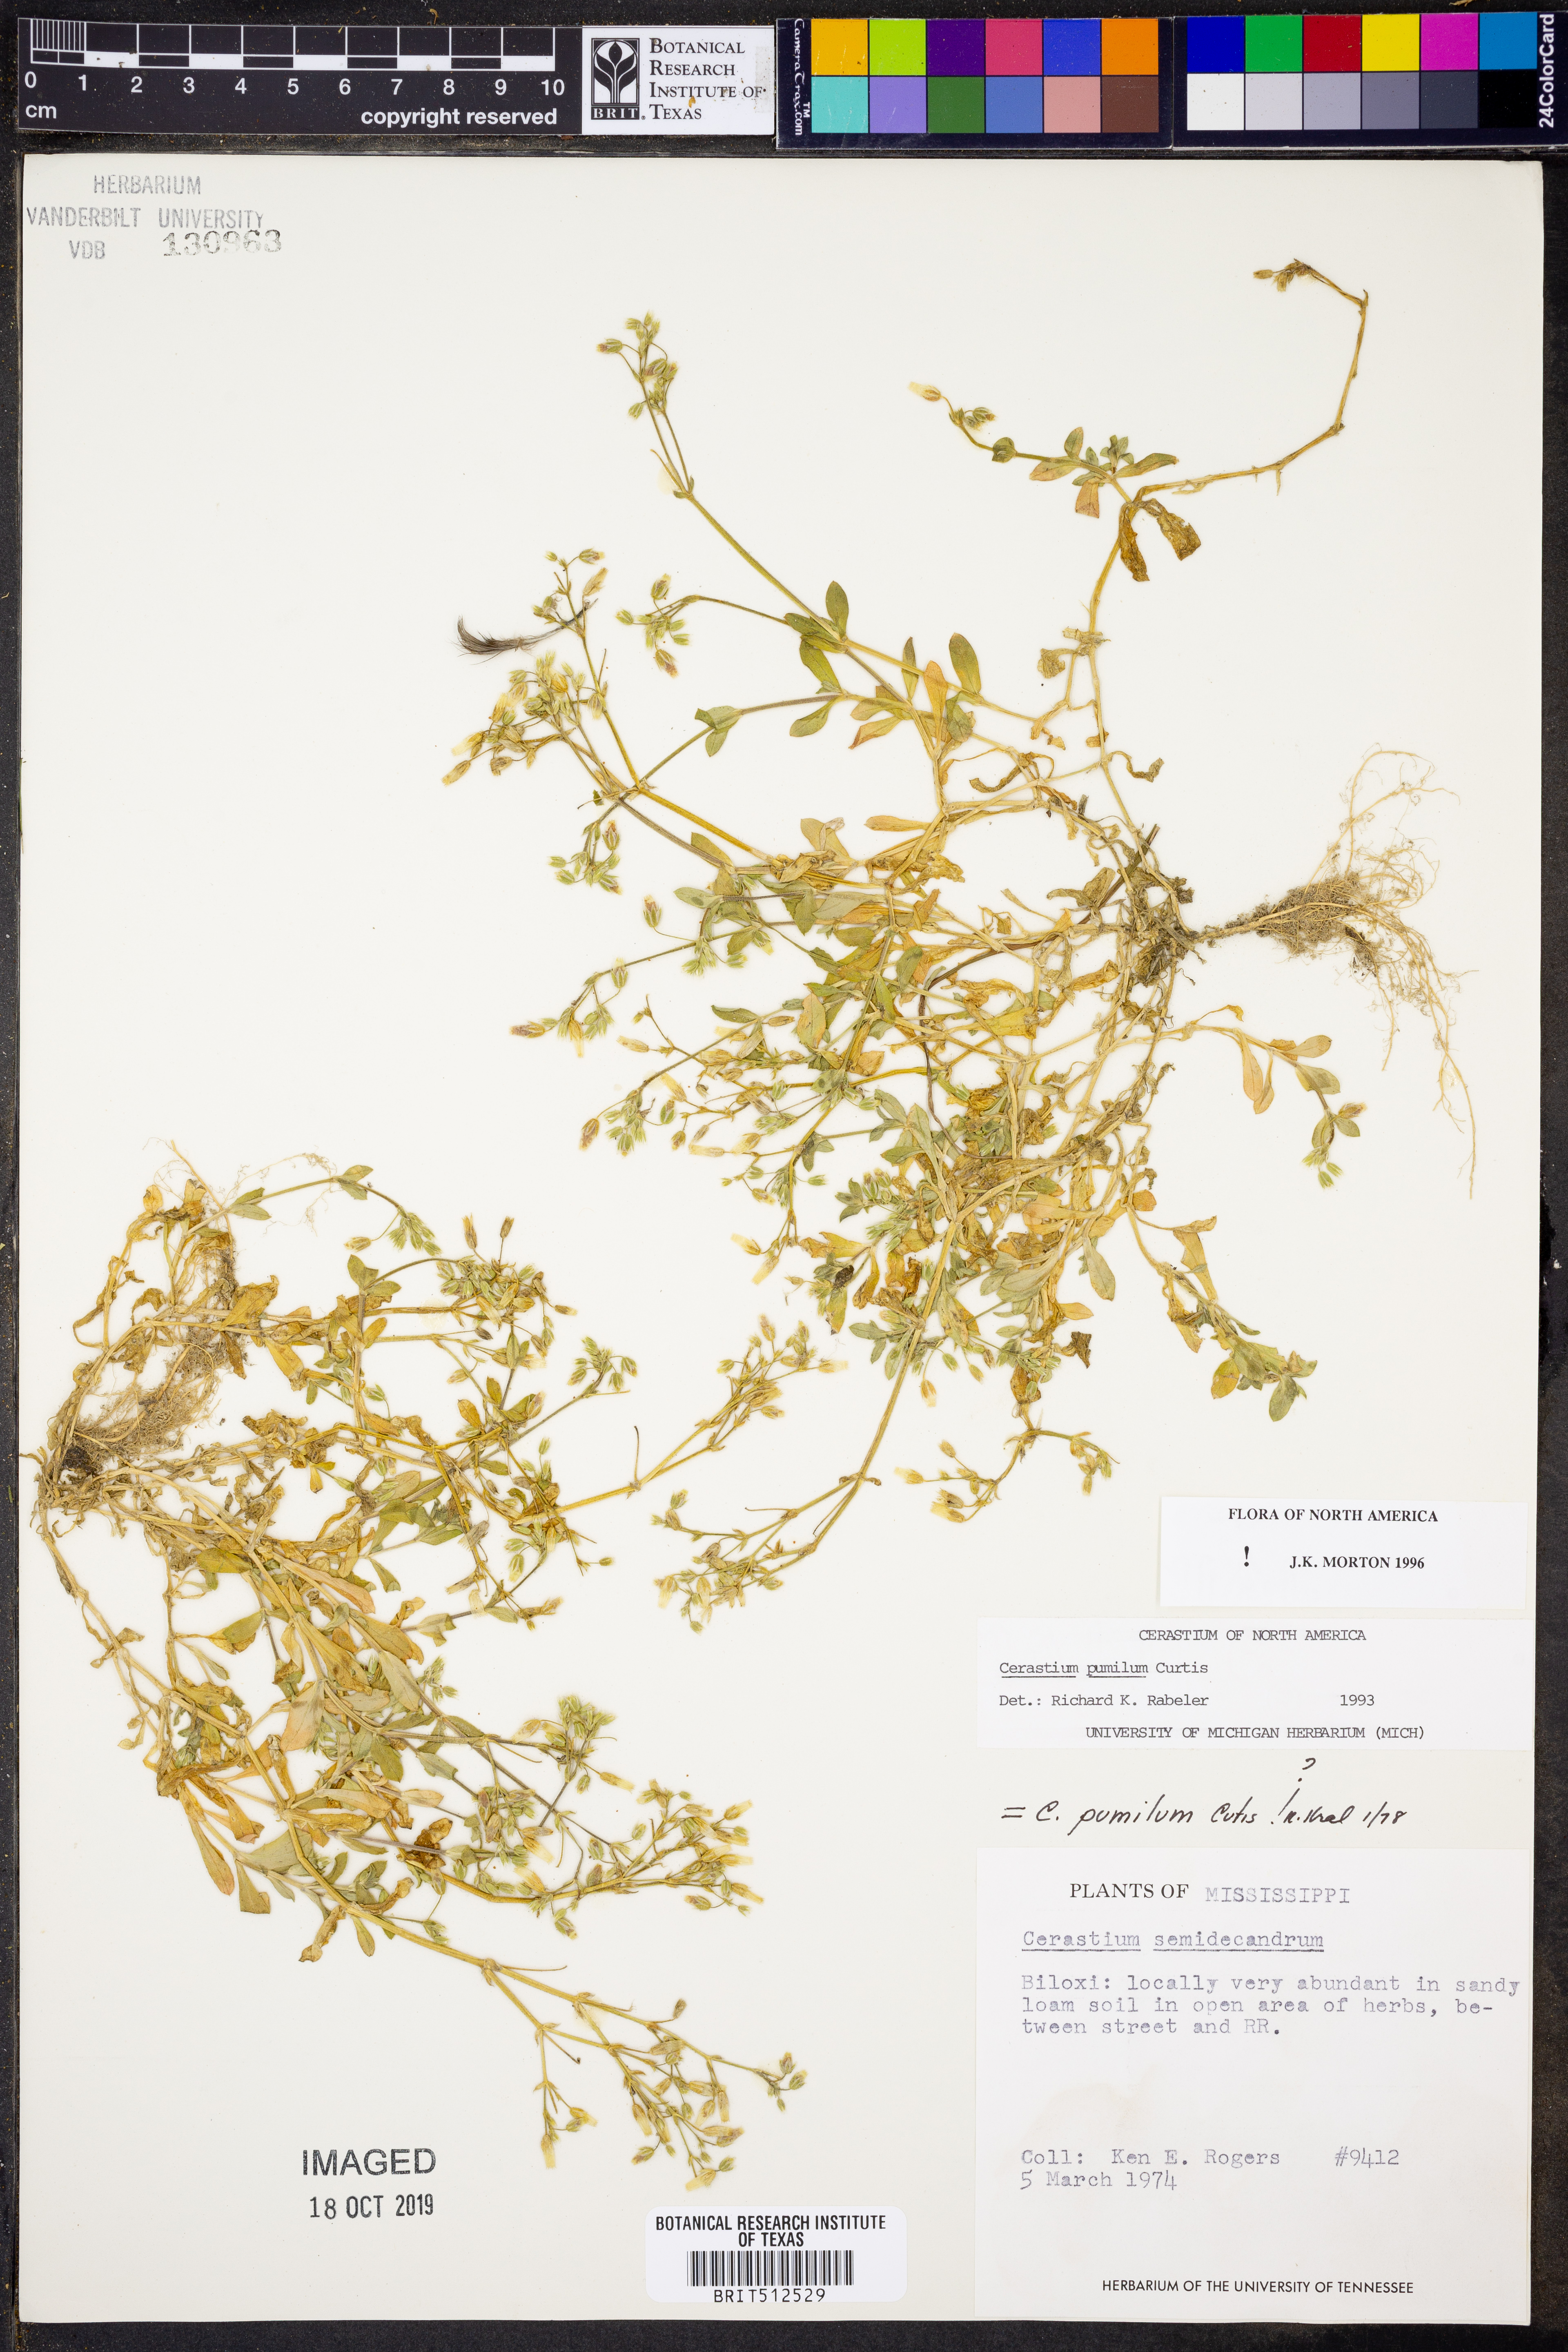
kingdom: Plantae
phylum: Tracheophyta
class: Magnoliopsida
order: Caryophyllales
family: Caryophyllaceae
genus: Cerastium
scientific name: Cerastium pumilum
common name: Dwarf mouse-ear
